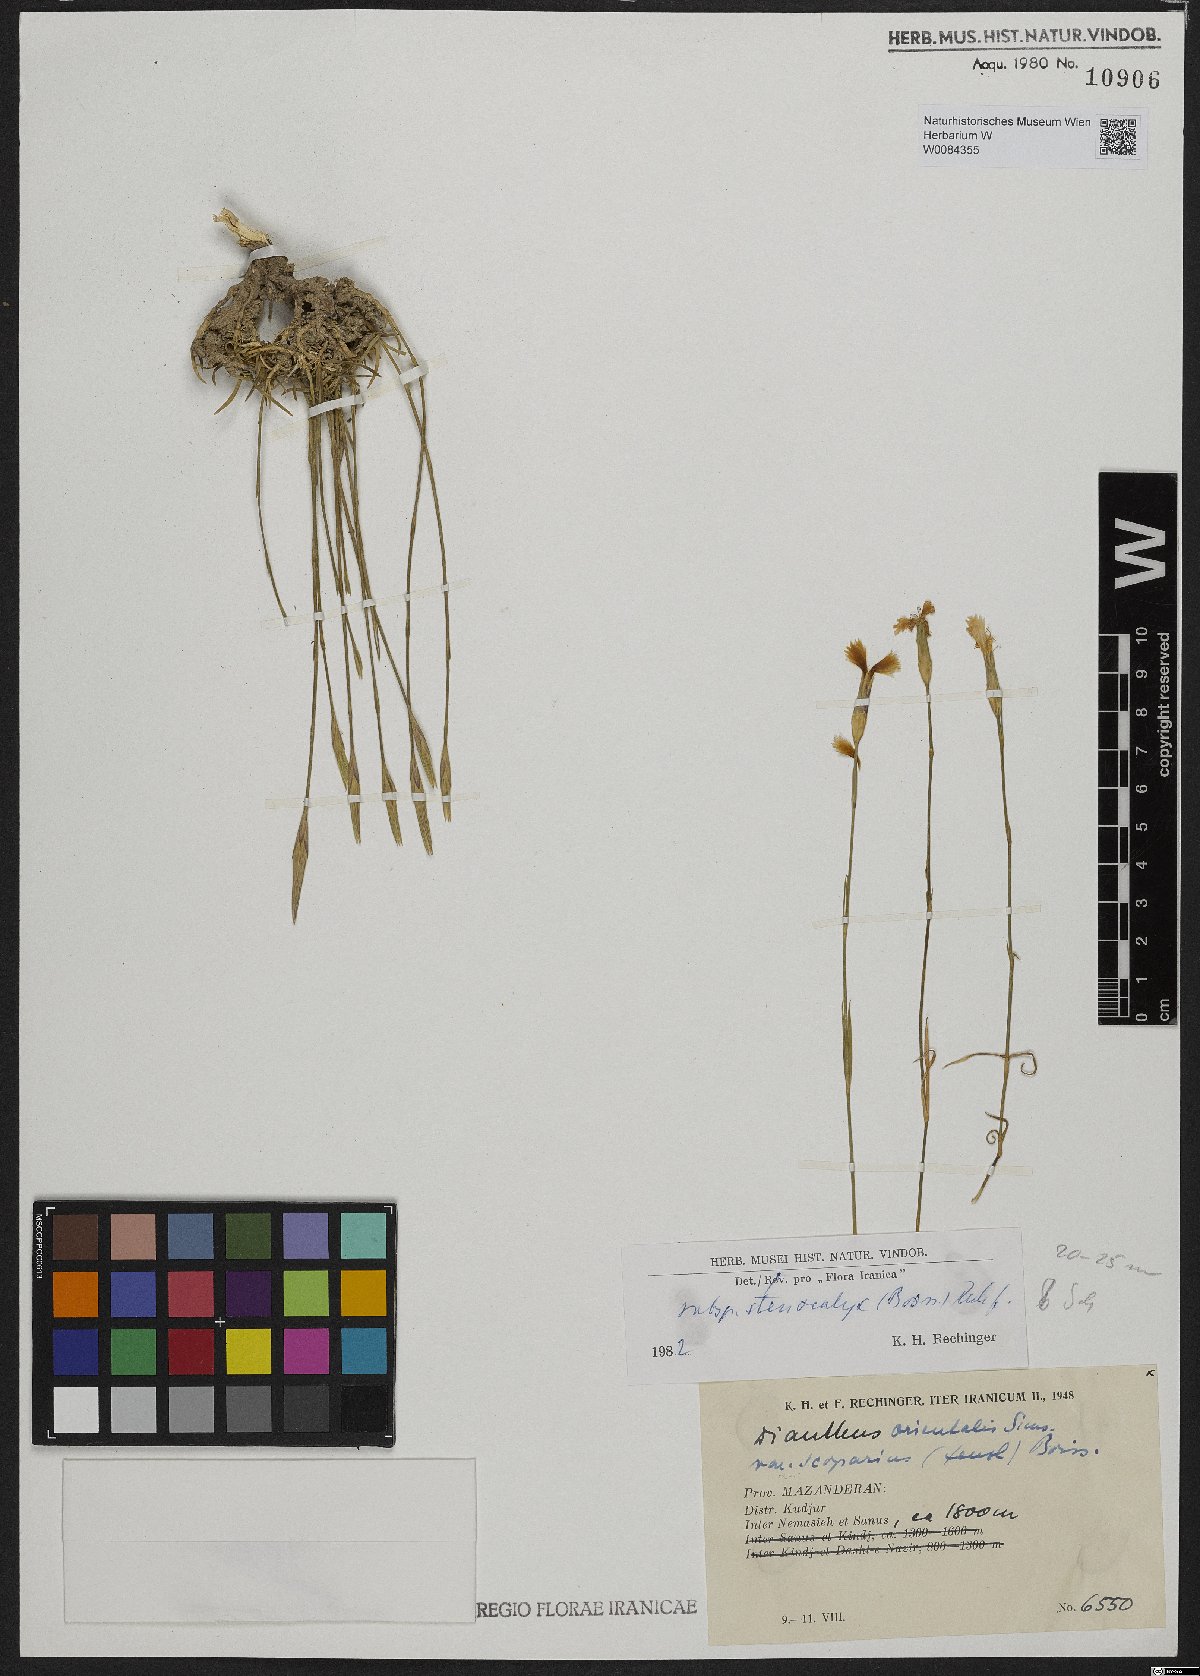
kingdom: Plantae
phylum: Tracheophyta
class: Magnoliopsida
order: Caryophyllales
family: Caryophyllaceae
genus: Dianthus
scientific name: Dianthus orientalis
